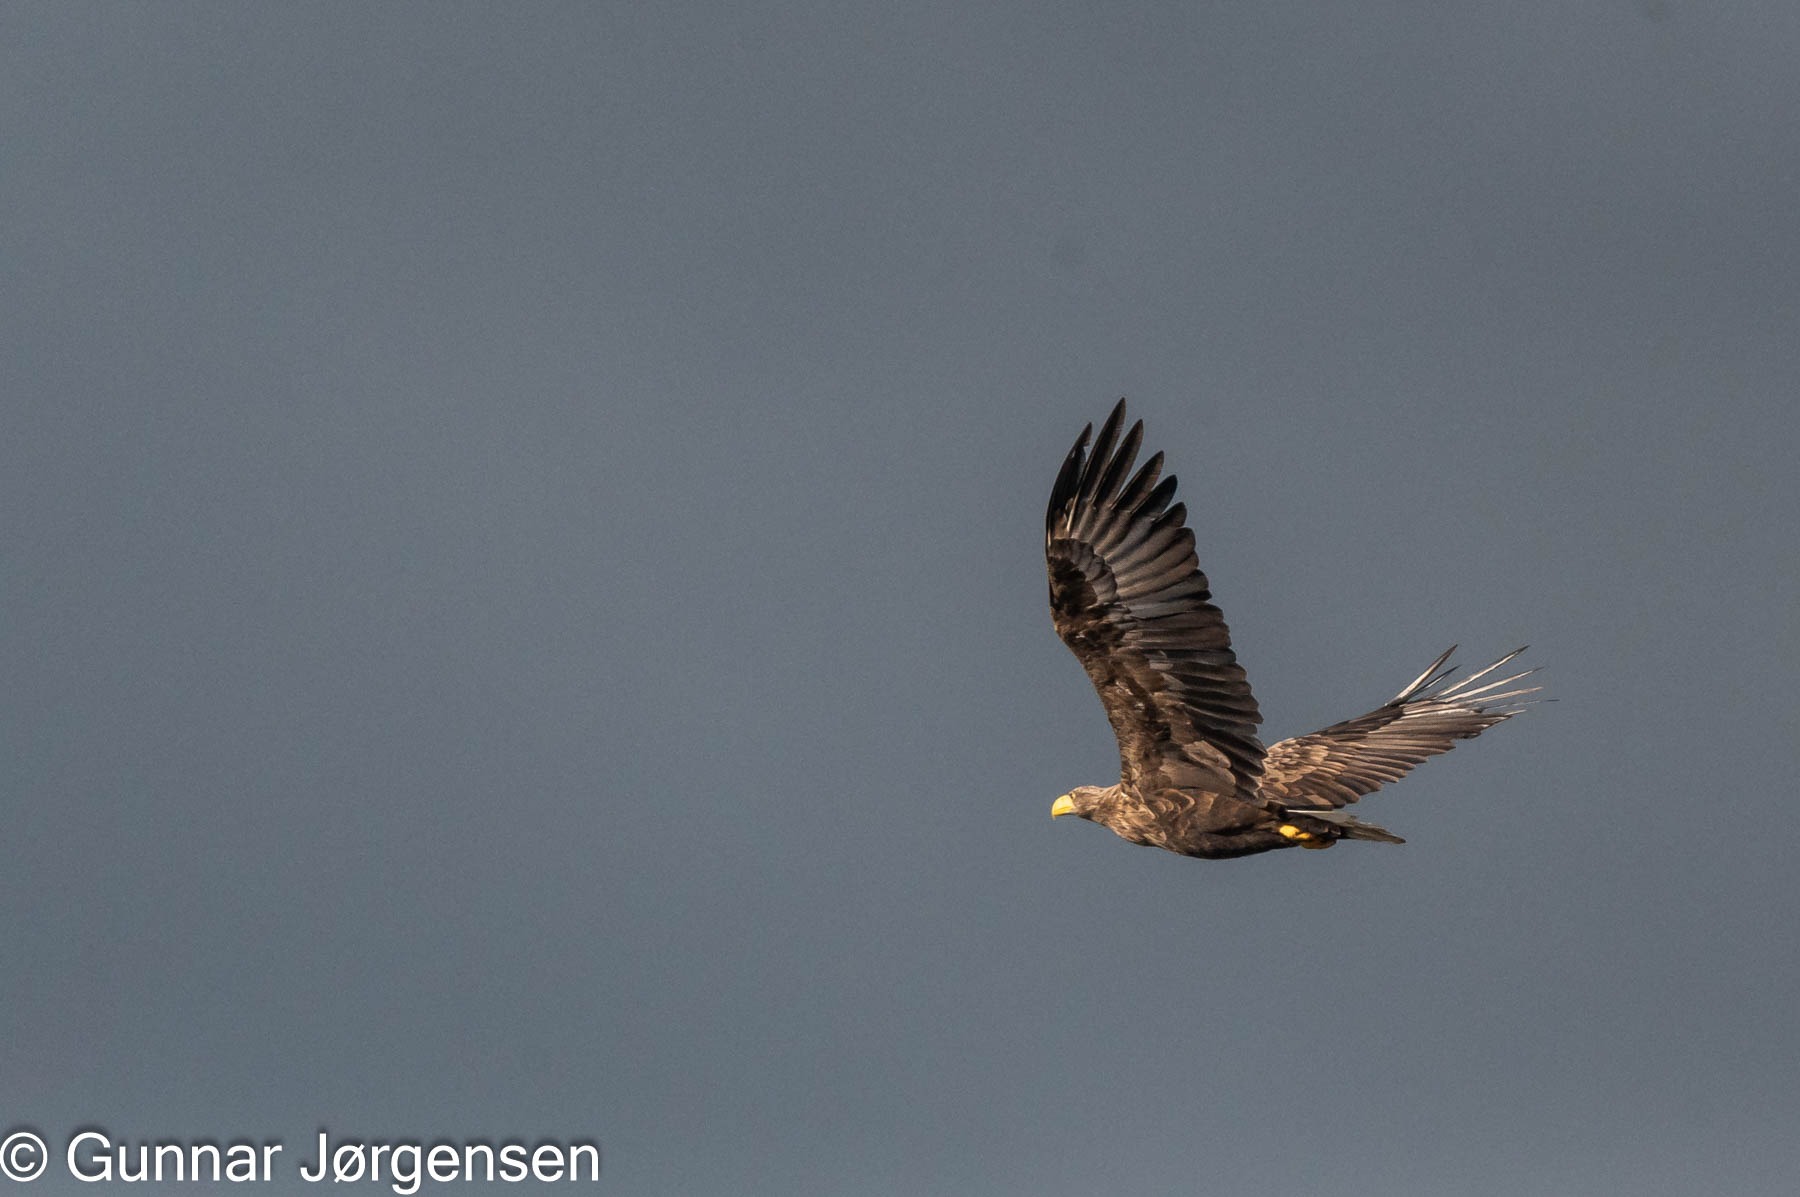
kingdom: Animalia
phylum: Chordata
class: Aves
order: Accipitriformes
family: Accipitridae
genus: Haliaeetus
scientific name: Haliaeetus albicilla
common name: Havørn
